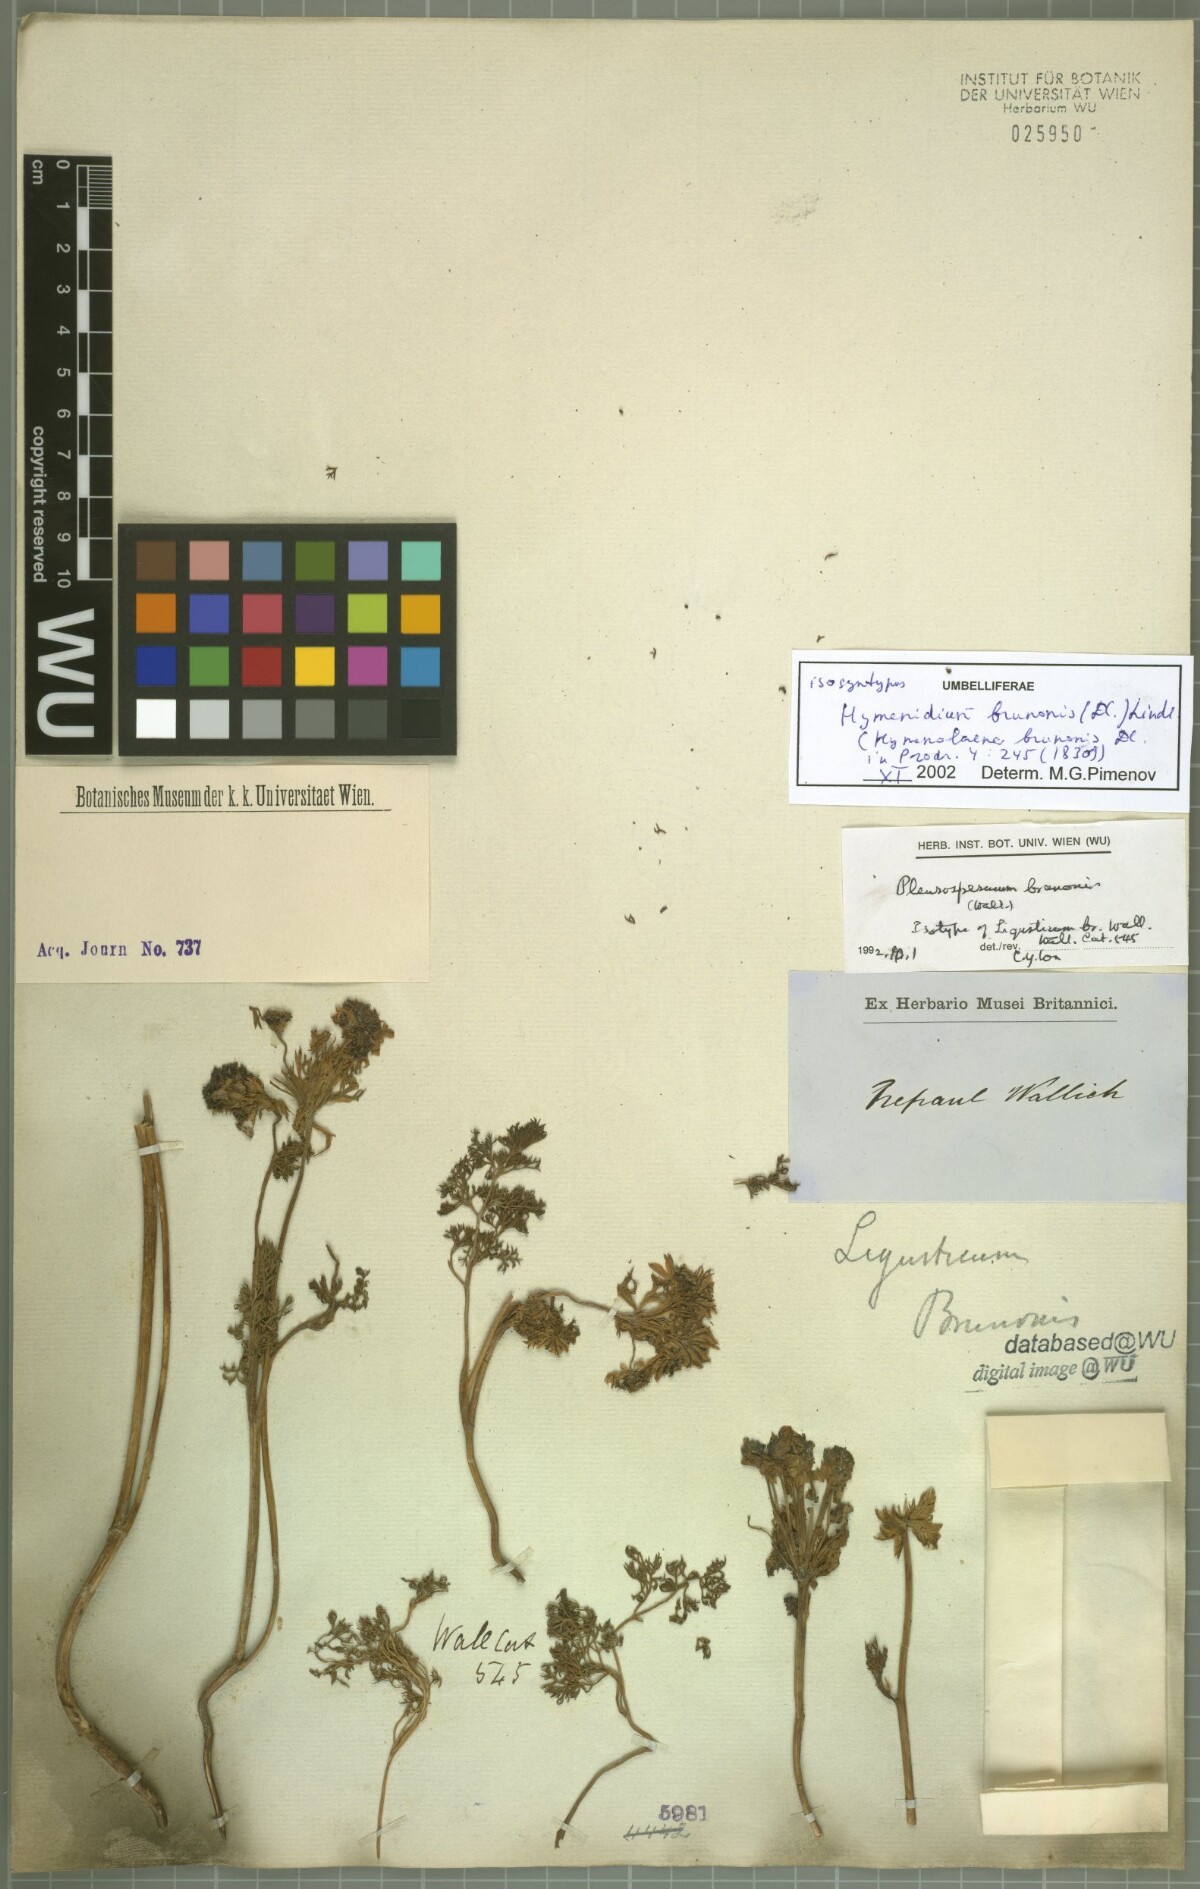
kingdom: Plantae
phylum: Tracheophyta
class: Magnoliopsida
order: Apiales
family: Apiaceae
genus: Hymenidium
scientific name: Hymenidium brunonis
